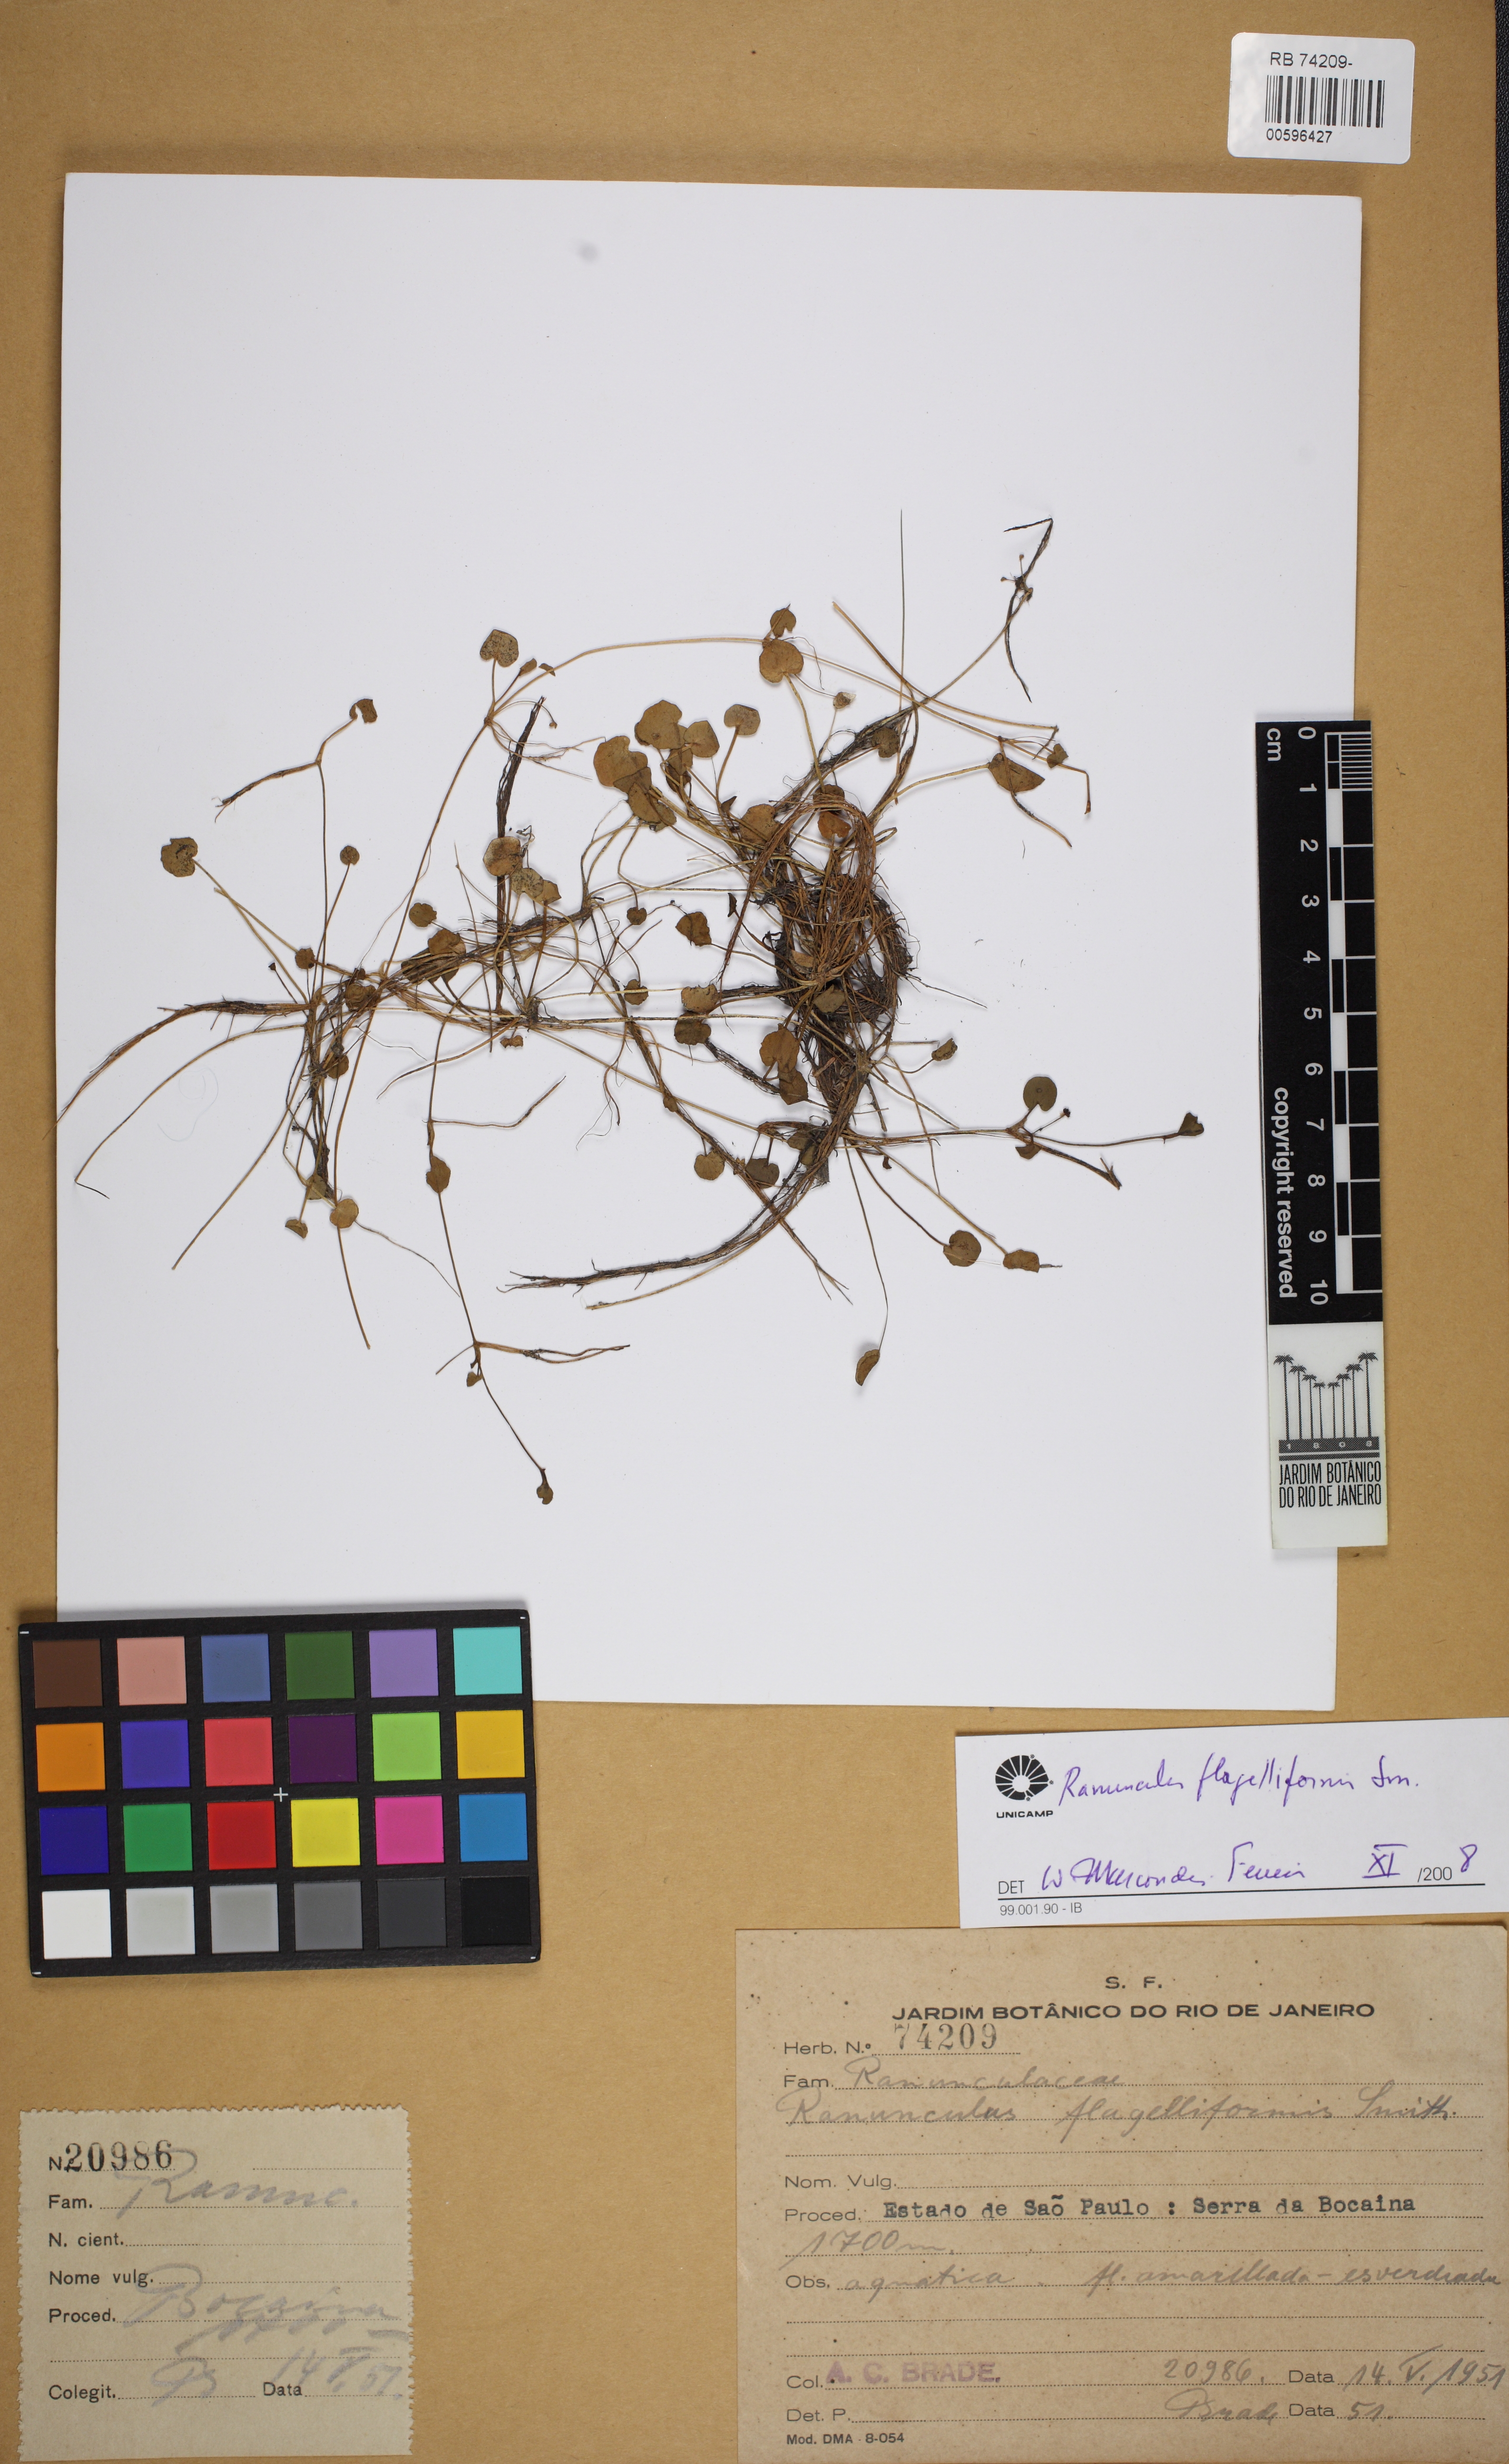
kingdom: Plantae
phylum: Tracheophyta
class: Magnoliopsida
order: Ranunculales
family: Ranunculaceae
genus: Ranunculus
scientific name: Ranunculus flagelliformis
